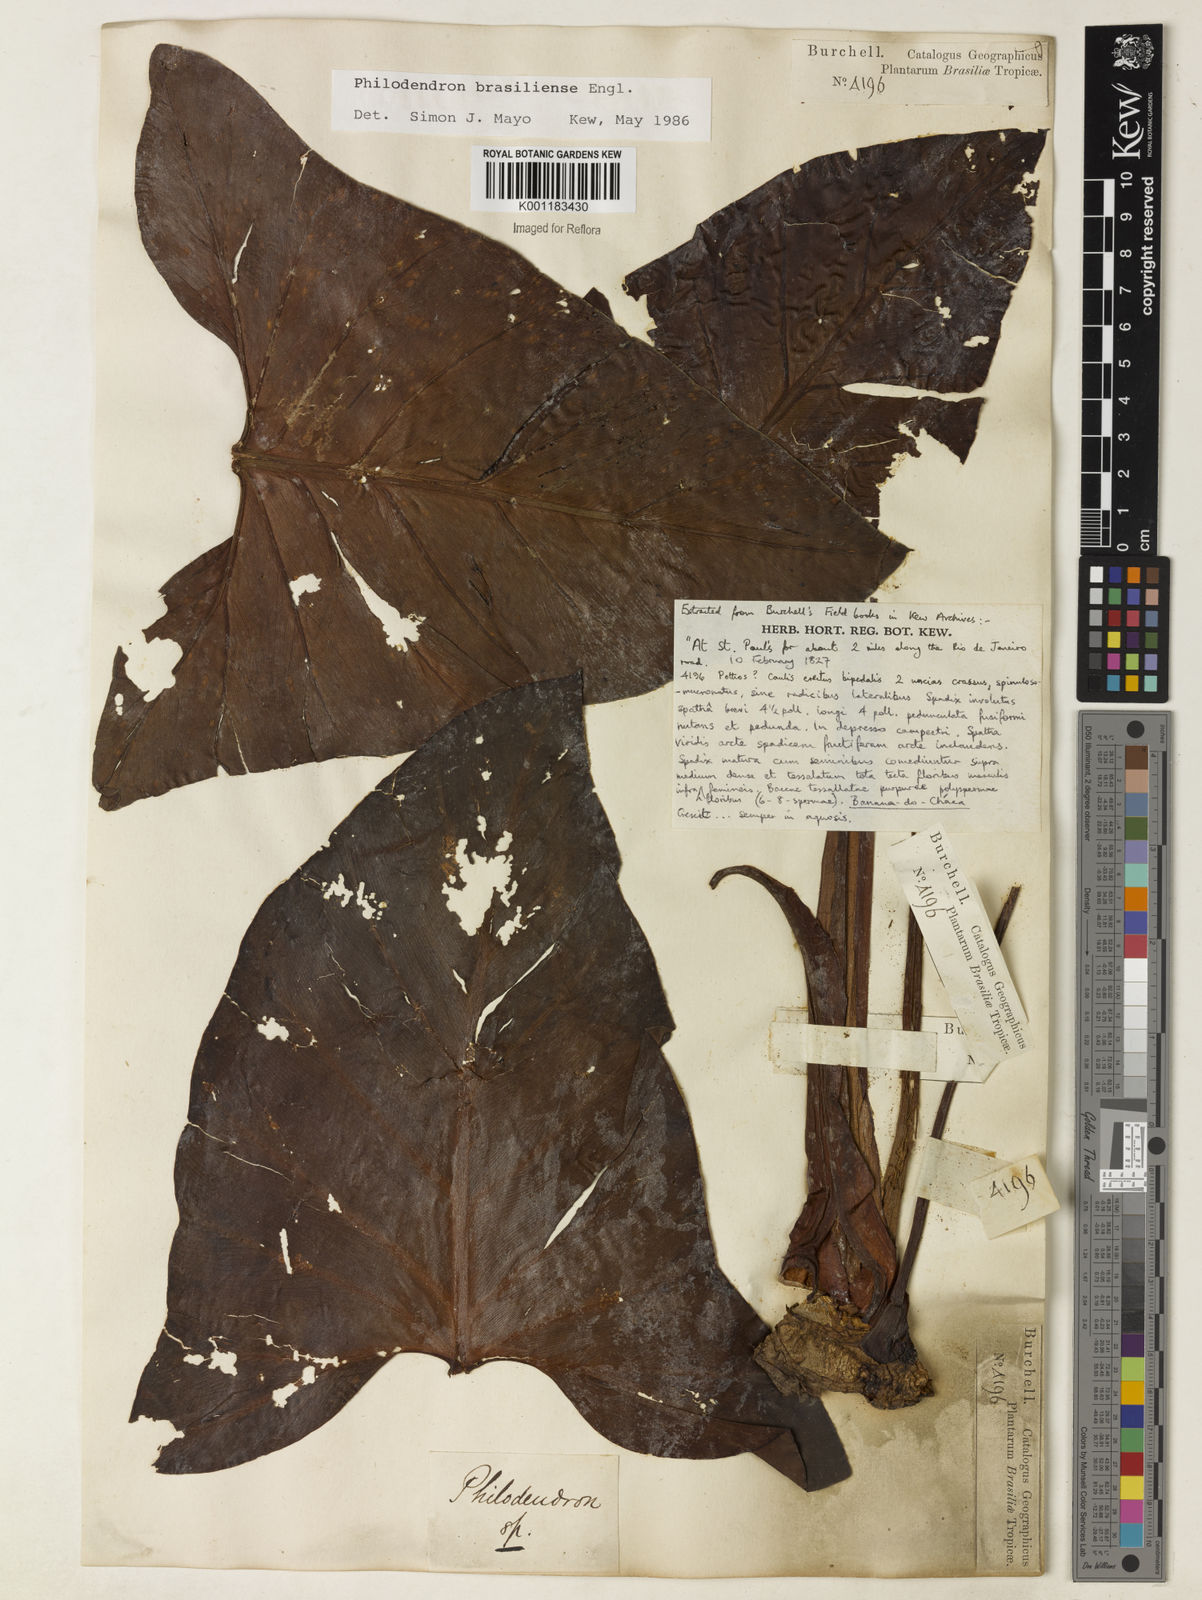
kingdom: Plantae
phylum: Tracheophyta
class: Liliopsida
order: Alismatales
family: Araceae
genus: Thaumatophyllum
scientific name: Thaumatophyllum brasiliense
